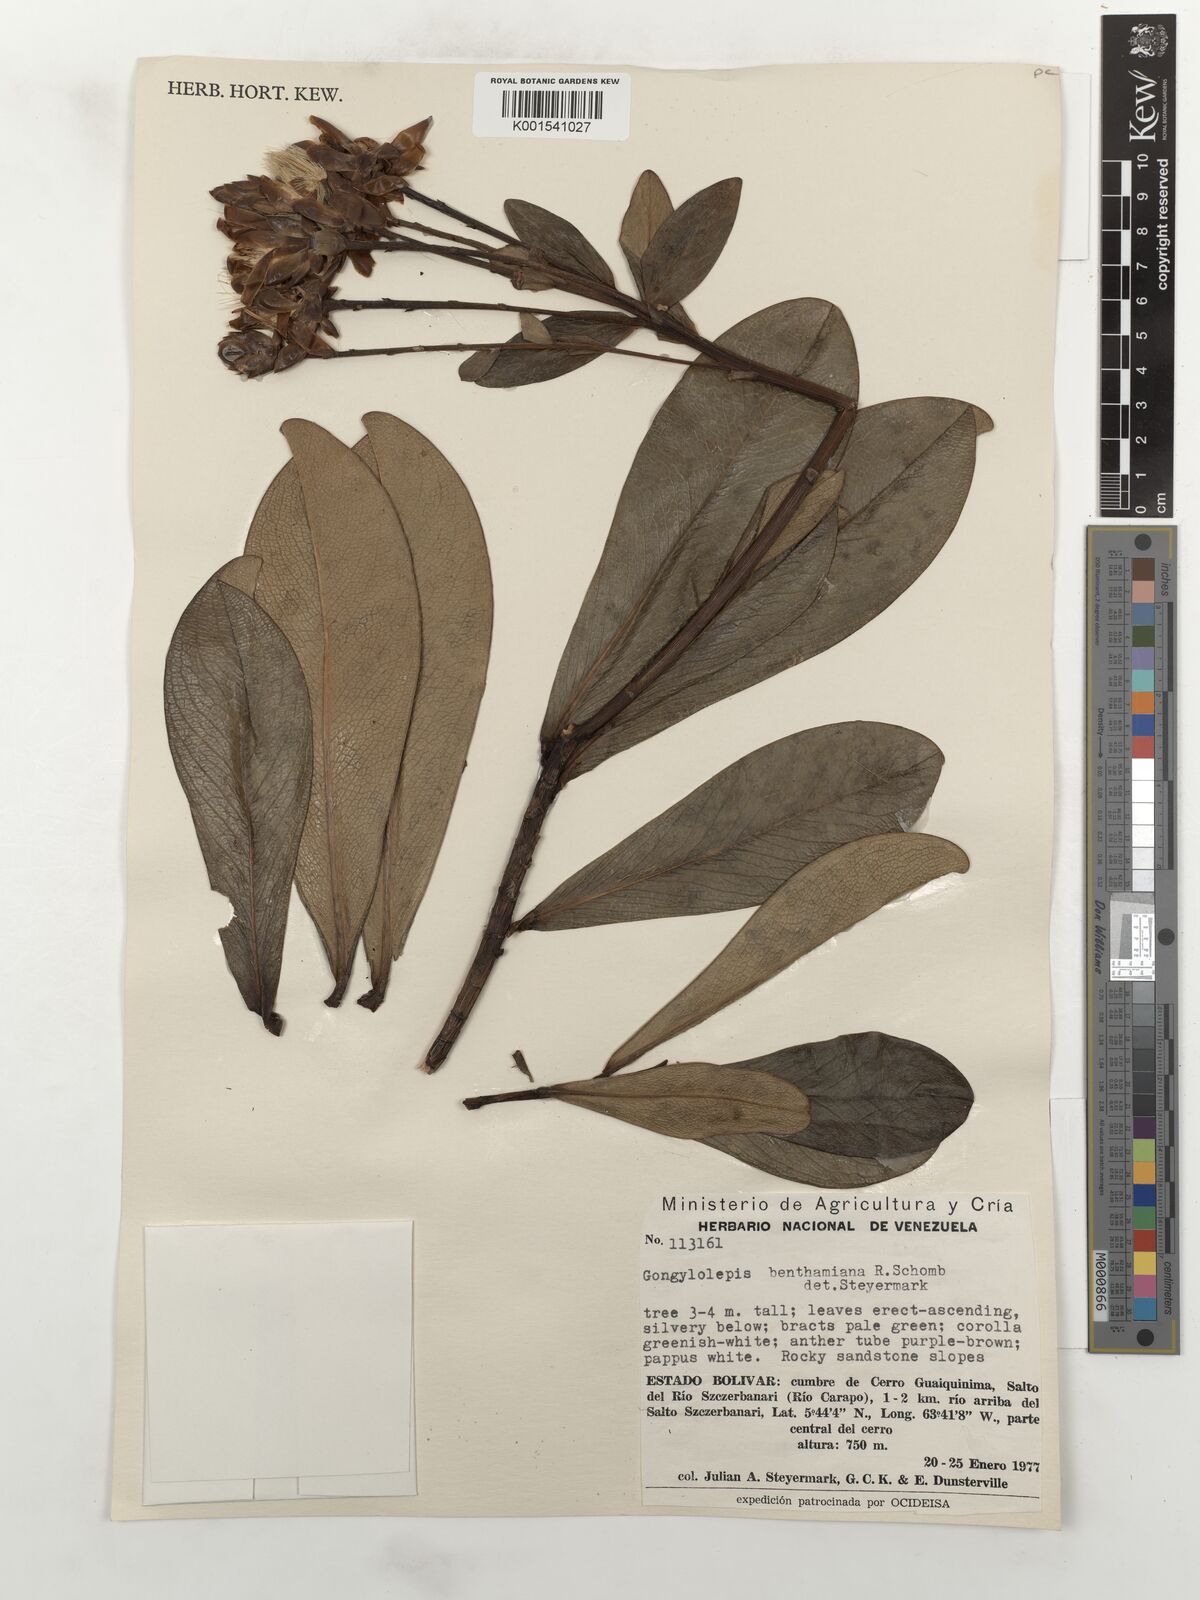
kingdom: Plantae
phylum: Tracheophyta
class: Magnoliopsida
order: Asterales
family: Asteraceae
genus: Gongylolepis
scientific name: Gongylolepis benthamiana
